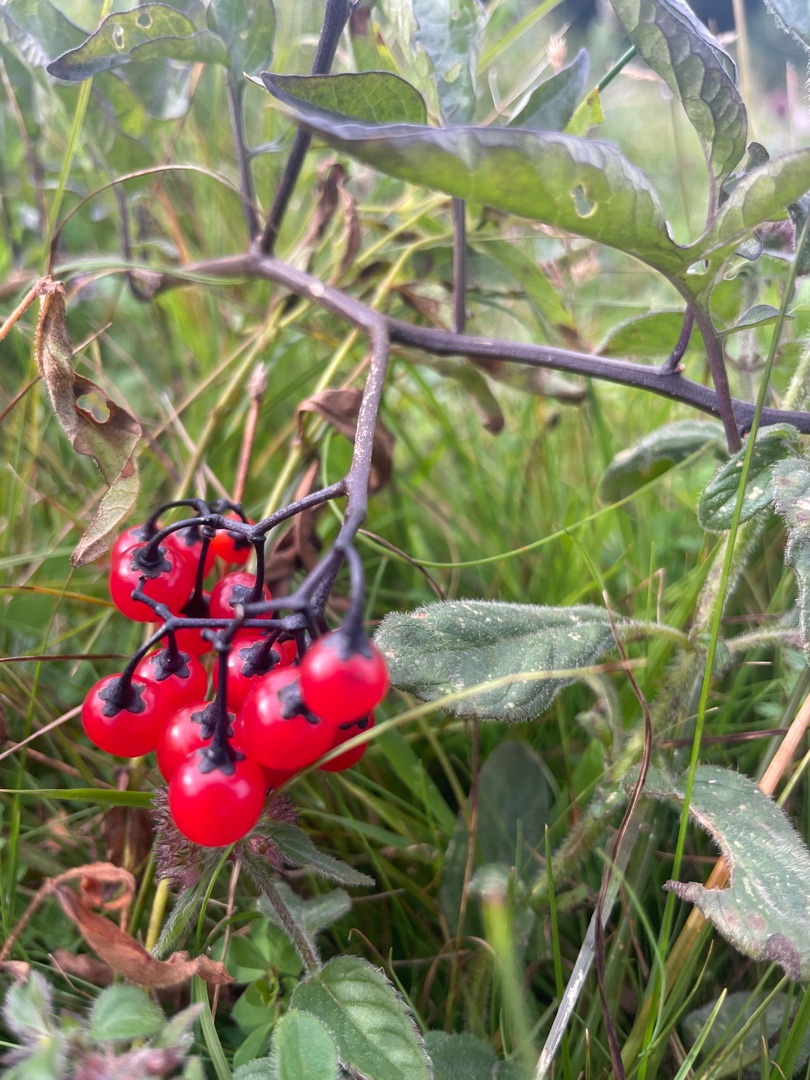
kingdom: Plantae
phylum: Tracheophyta
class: Magnoliopsida
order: Solanales
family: Solanaceae
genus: Solanum
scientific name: Solanum dulcamara
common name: Bittersød natskygge
